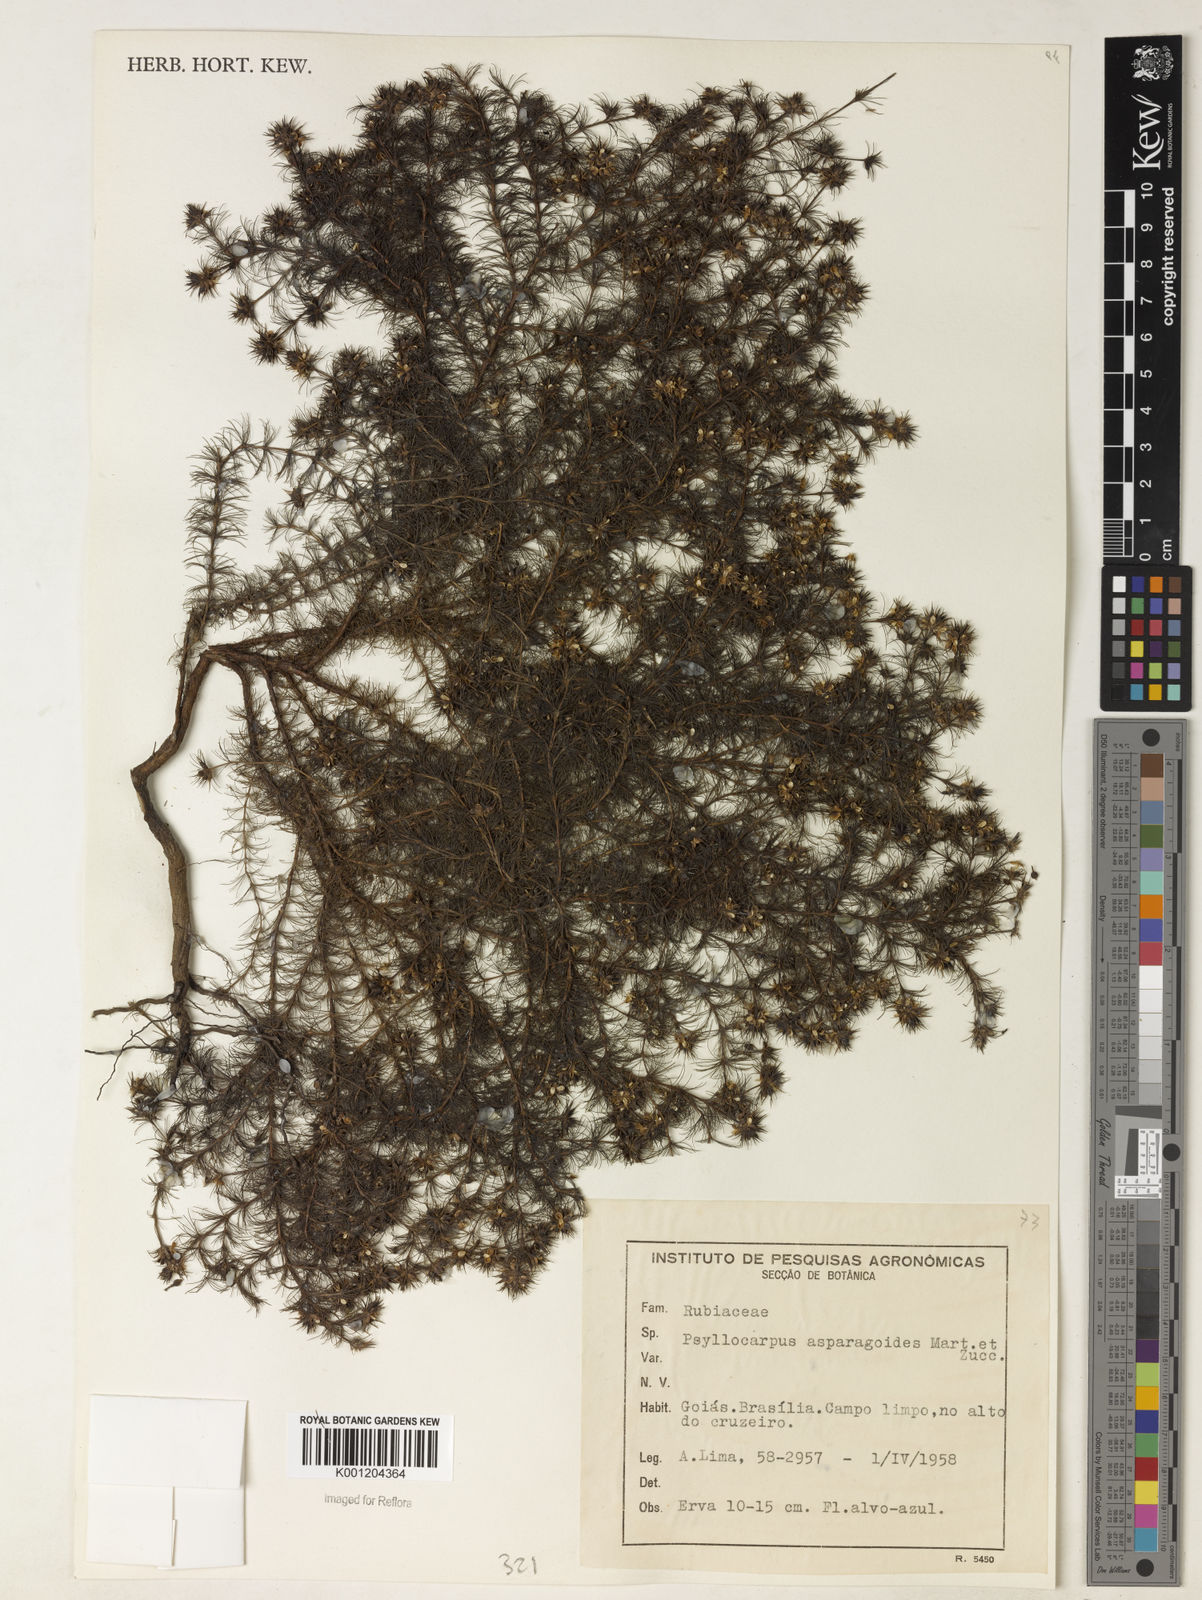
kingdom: Plantae
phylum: Tracheophyta
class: Magnoliopsida
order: Gentianales
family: Rubiaceae
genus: Psyllocarpus
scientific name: Psyllocarpus phyllocephalus
